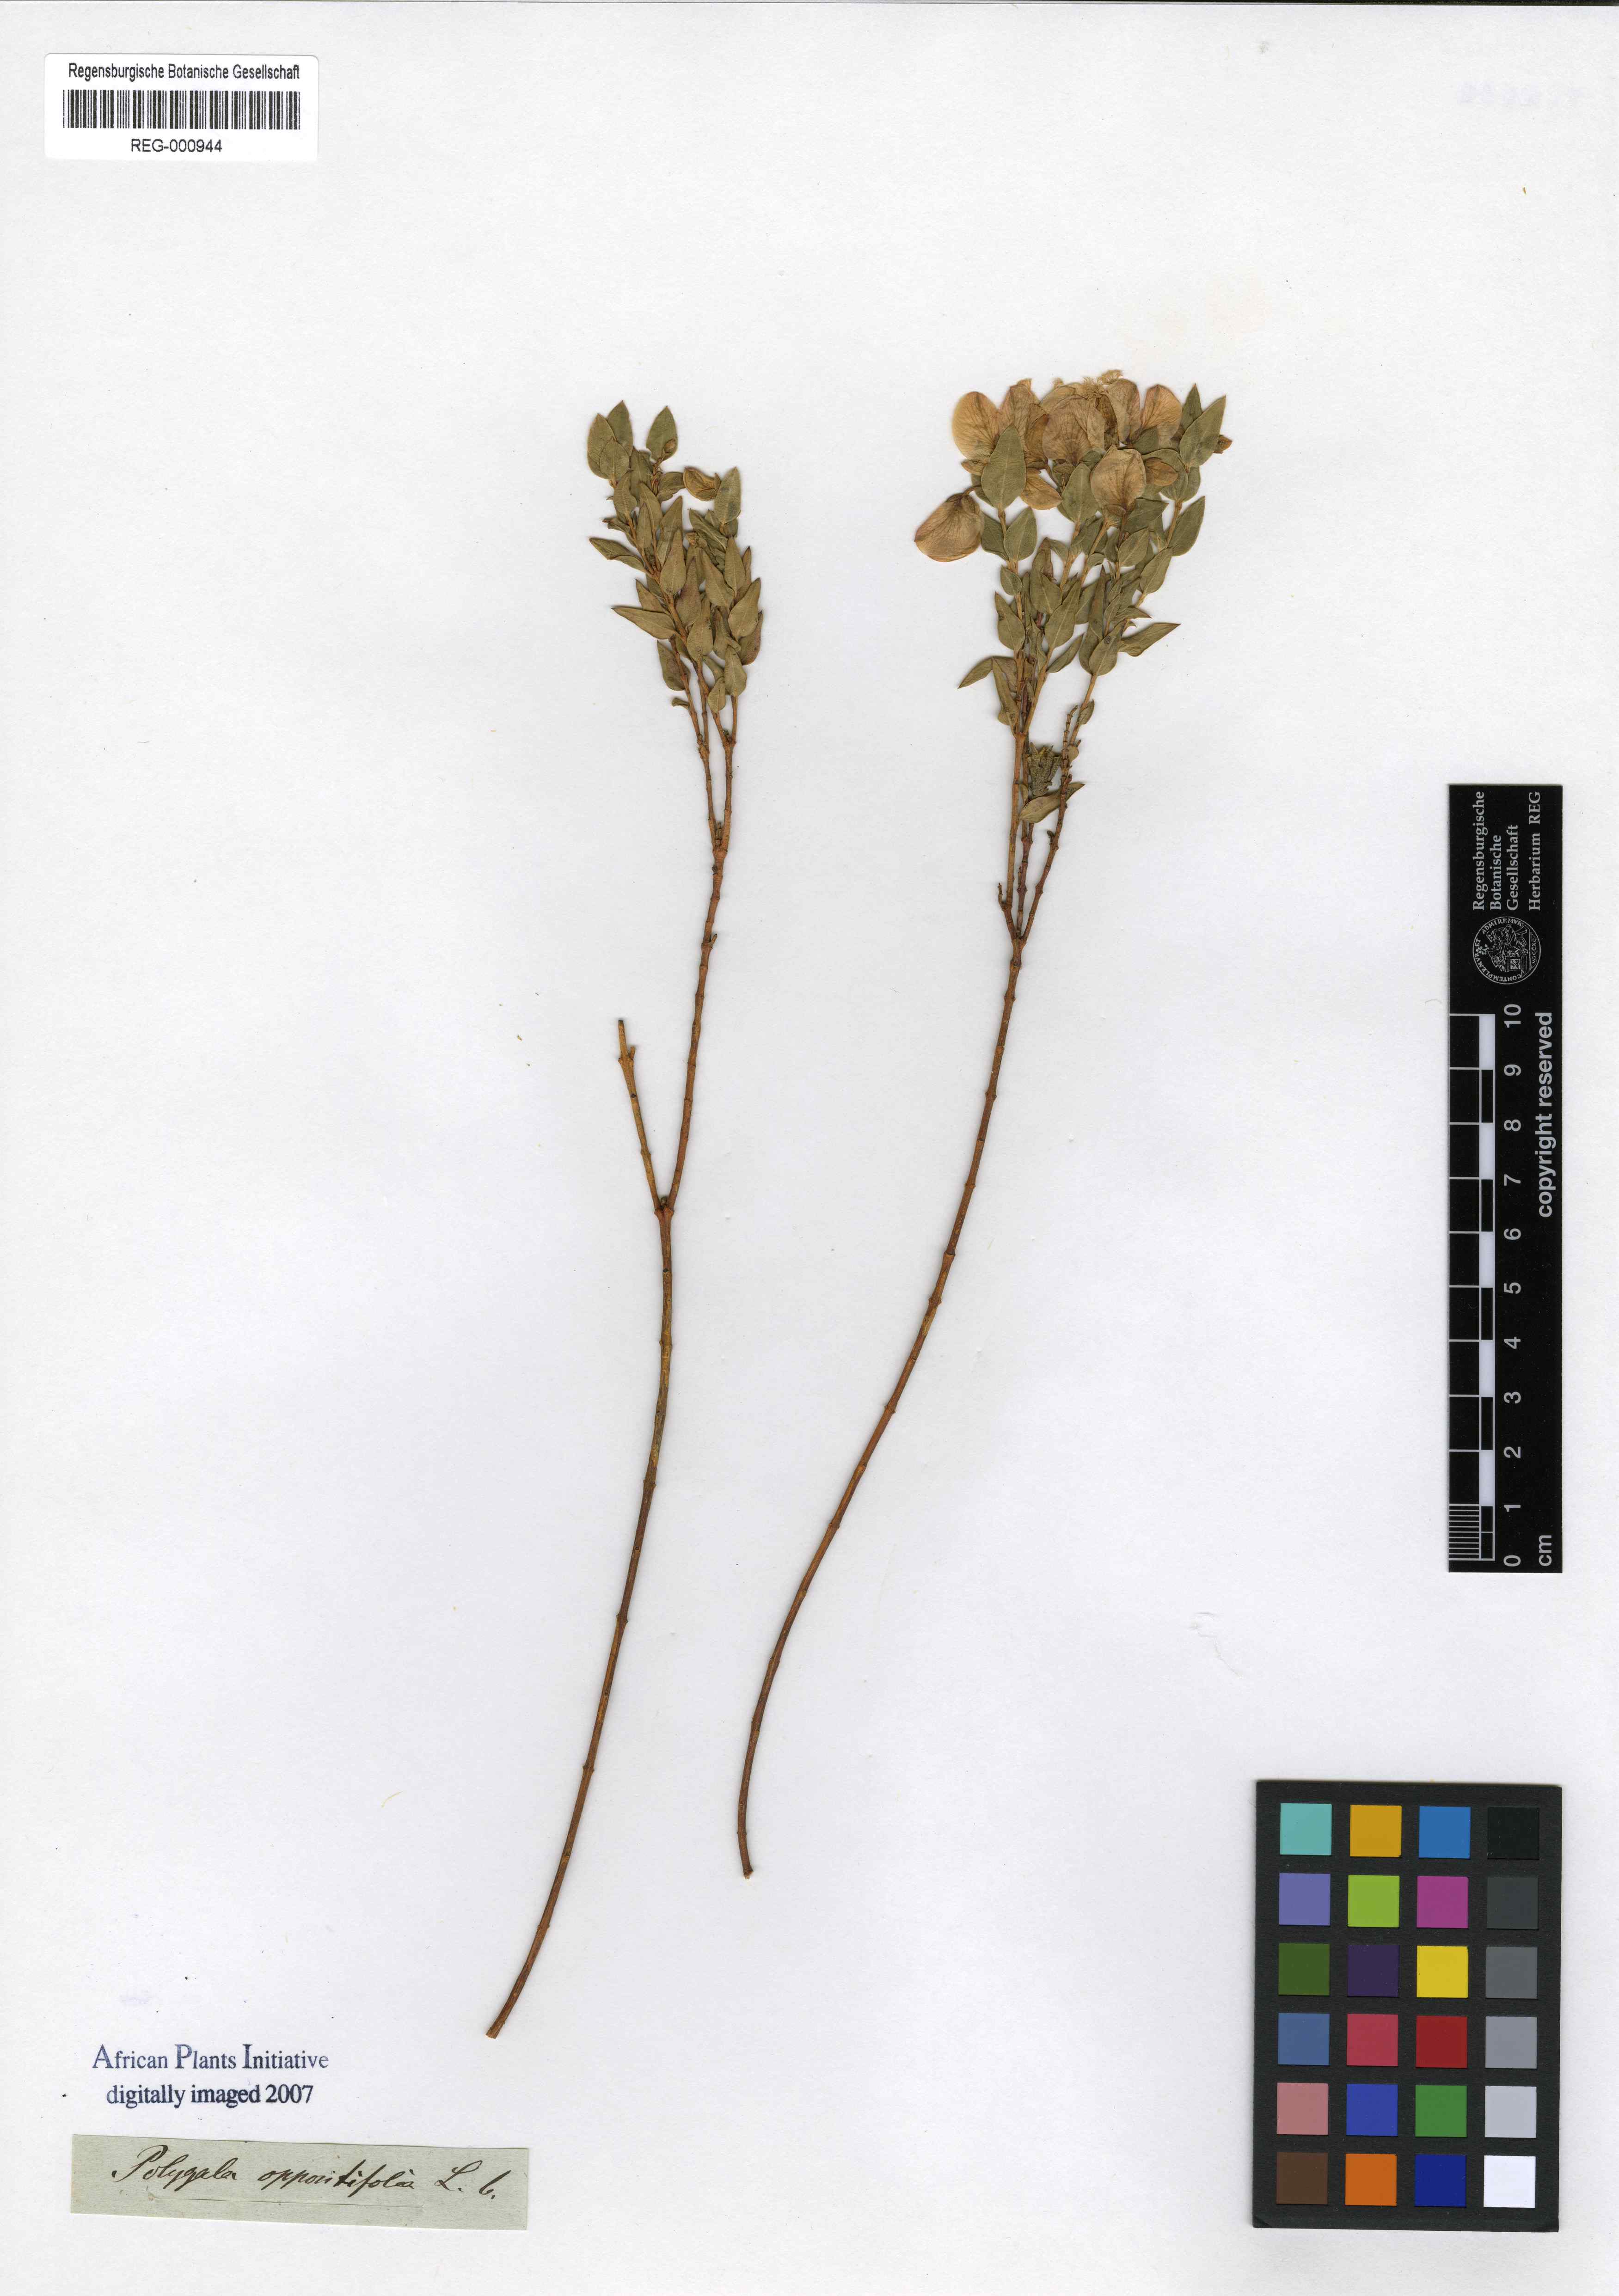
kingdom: Plantae
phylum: Tracheophyta
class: Magnoliopsida
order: Fabales
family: Polygalaceae
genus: Polygala
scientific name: Polygala fruticosa
